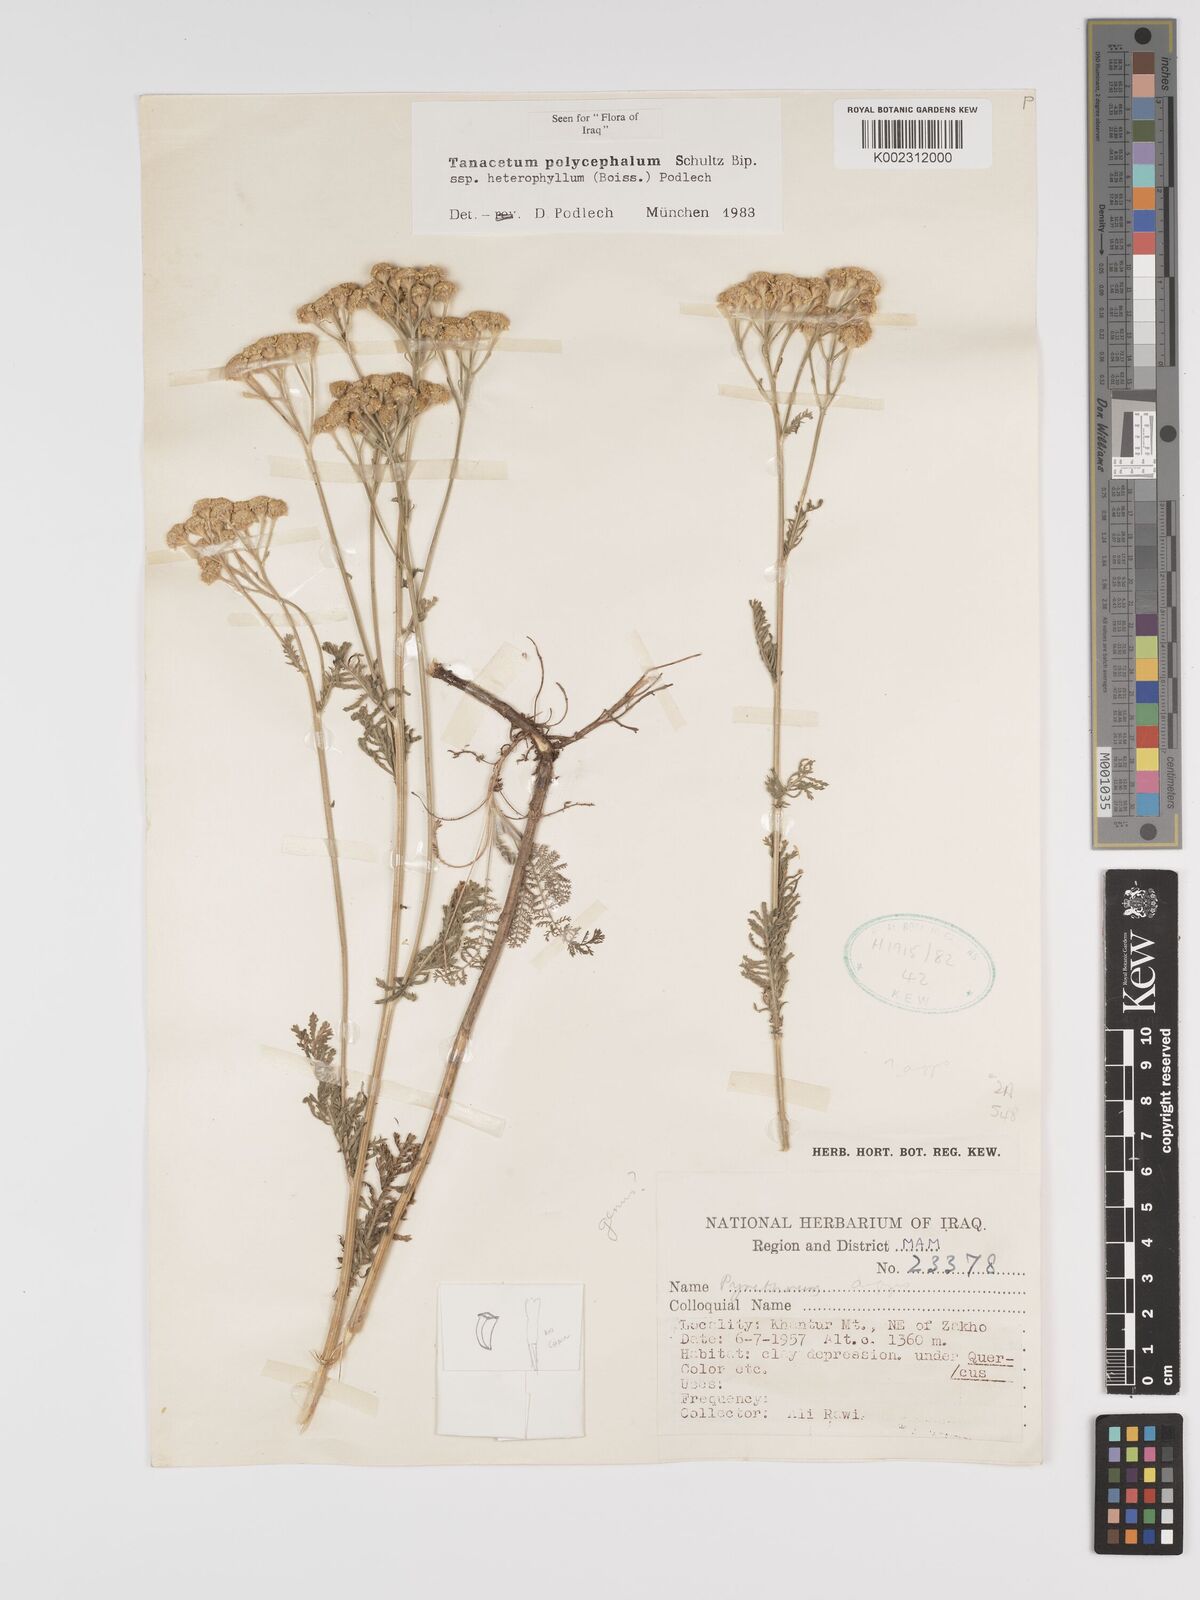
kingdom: Plantae
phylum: Tracheophyta
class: Magnoliopsida
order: Asterales
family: Asteraceae
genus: Tanacetum
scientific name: Tanacetum polycephalum
